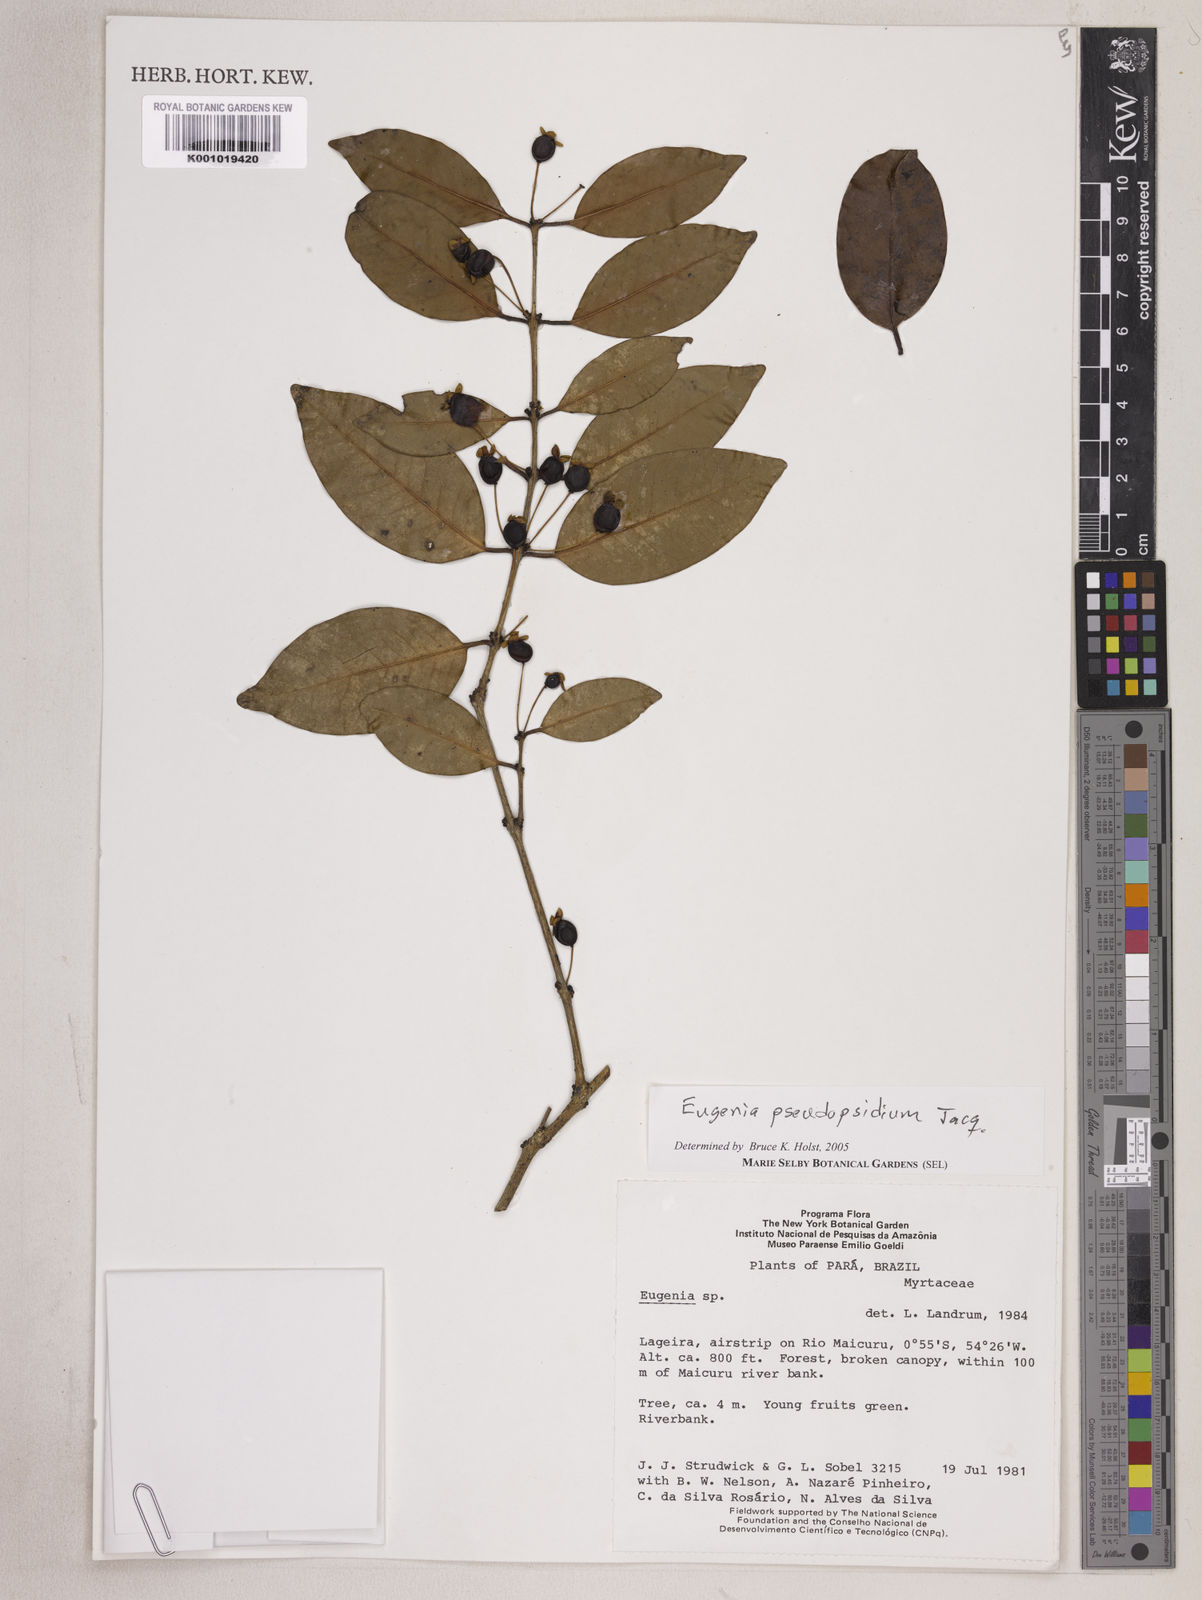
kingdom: Plantae
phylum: Tracheophyta
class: Magnoliopsida
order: Myrtales
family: Myrtaceae
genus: Eugenia
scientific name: Eugenia pseudopsidium
